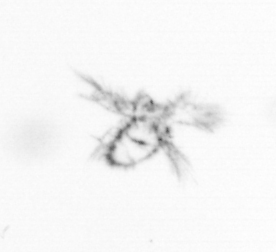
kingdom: Chromista
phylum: Ochrophyta
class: Bacillariophyceae
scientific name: Bacillariophyceae
